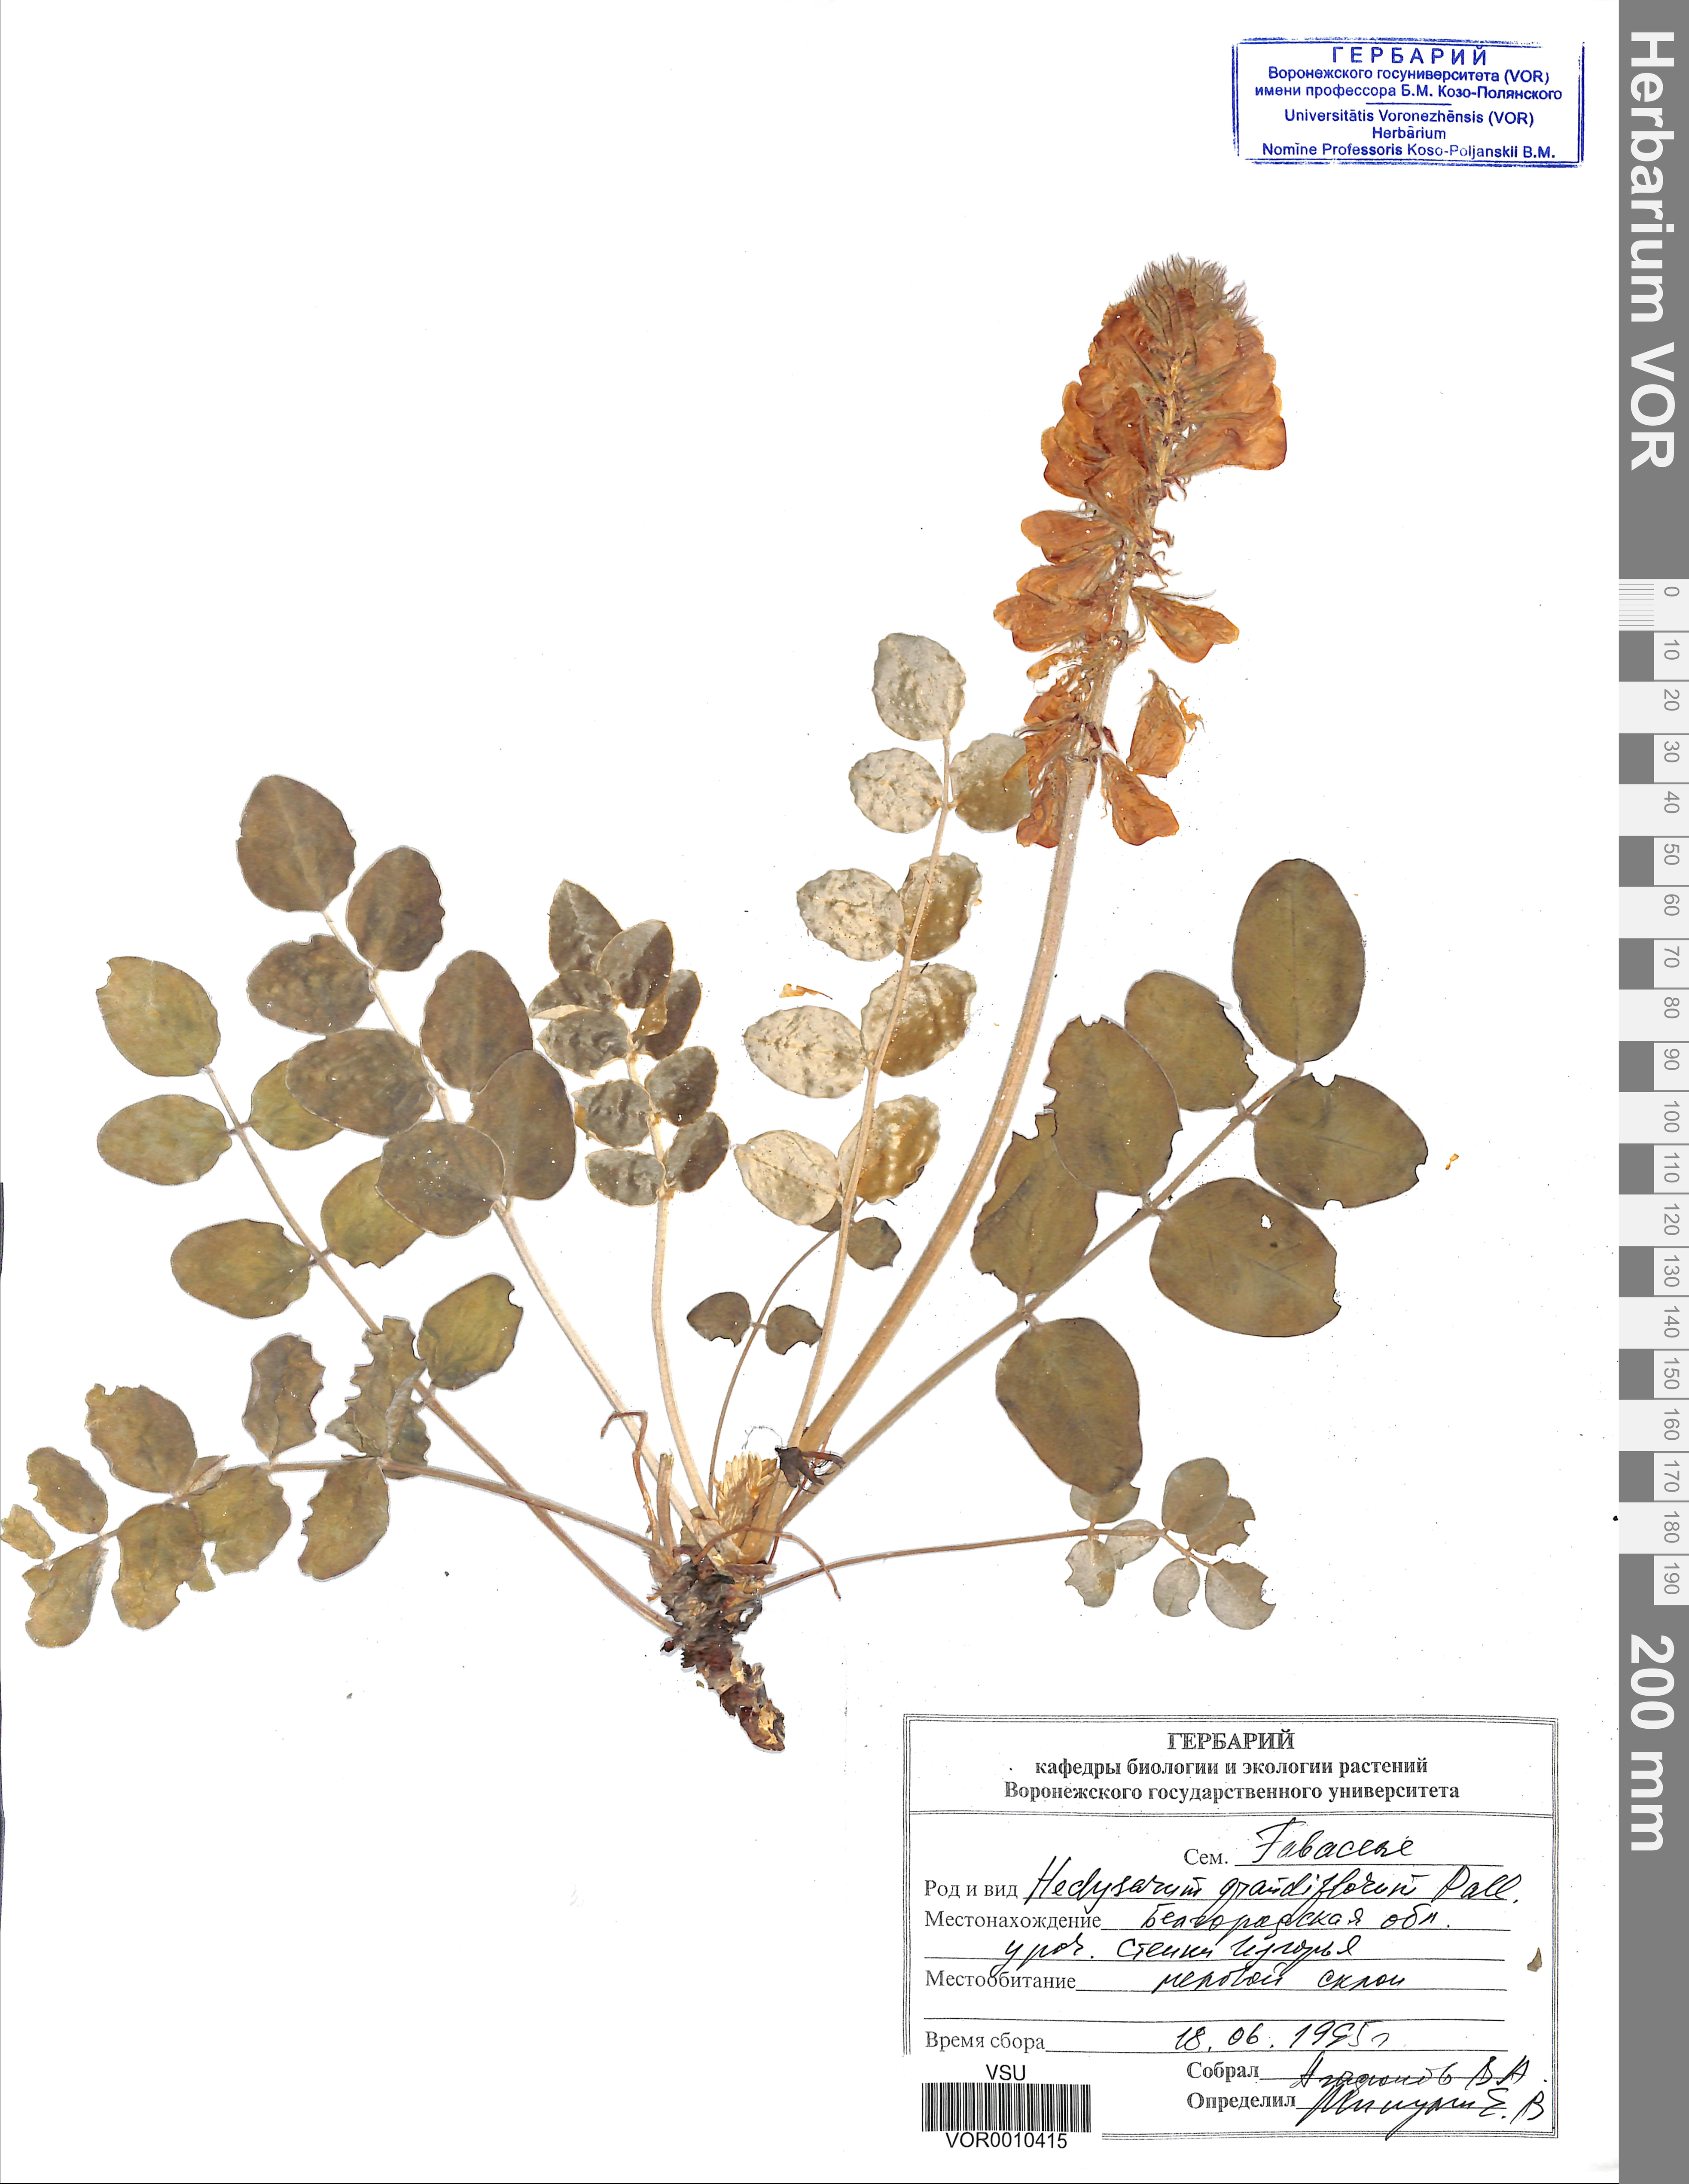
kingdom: Plantae
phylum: Tracheophyta
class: Magnoliopsida
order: Fabales
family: Fabaceae
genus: Hedysarum
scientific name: Hedysarum grandiflorum
